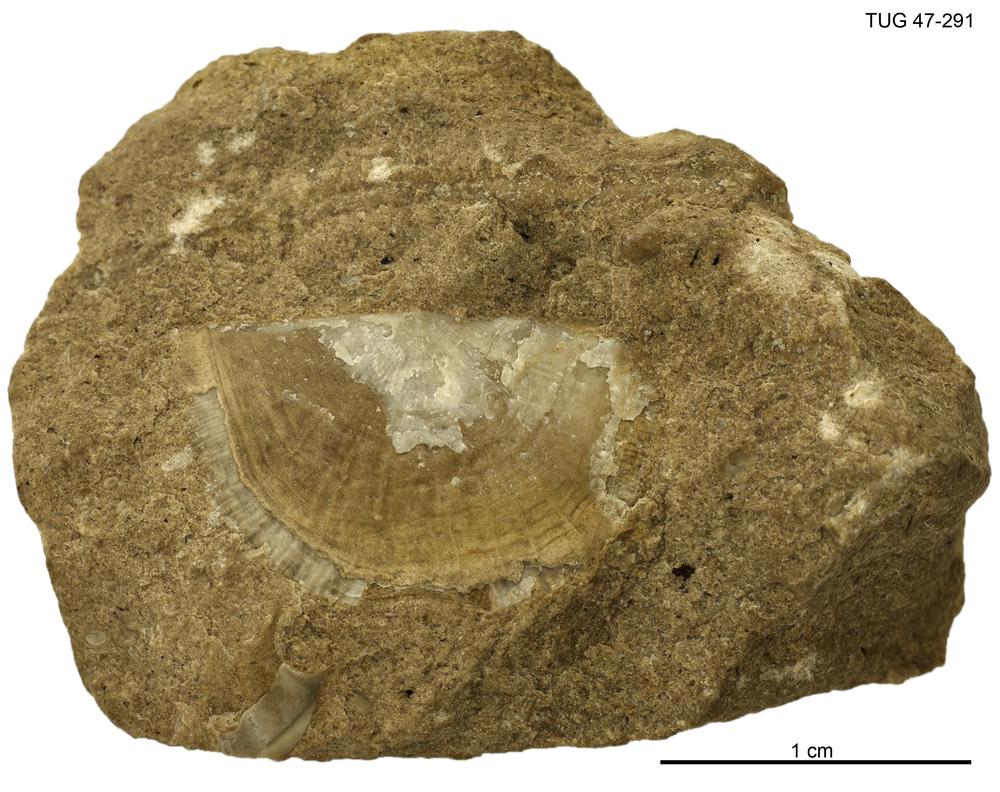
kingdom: Animalia
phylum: Brachiopoda
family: Leptaenidae
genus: Bekkeromena
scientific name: Bekkeromena
